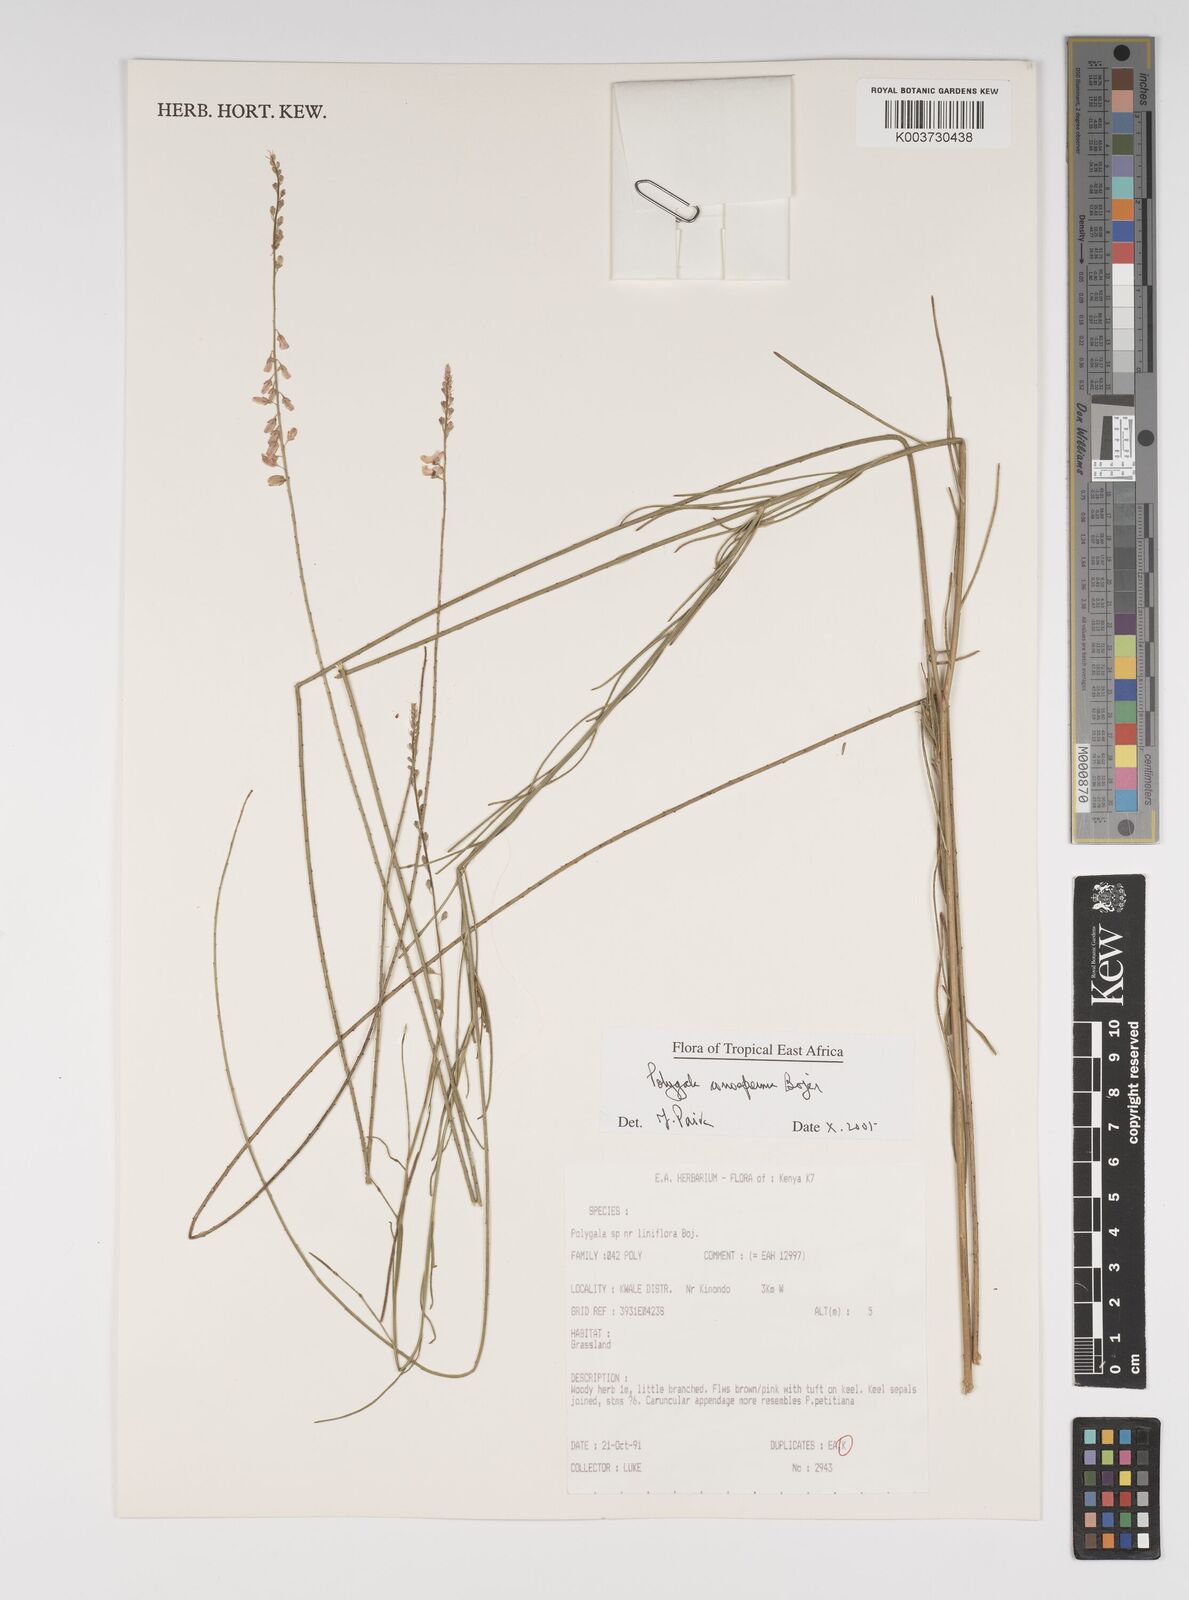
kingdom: Plantae
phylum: Tracheophyta
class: Magnoliopsida
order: Fabales
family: Polygalaceae
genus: Polygala
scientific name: Polygala conosperma
